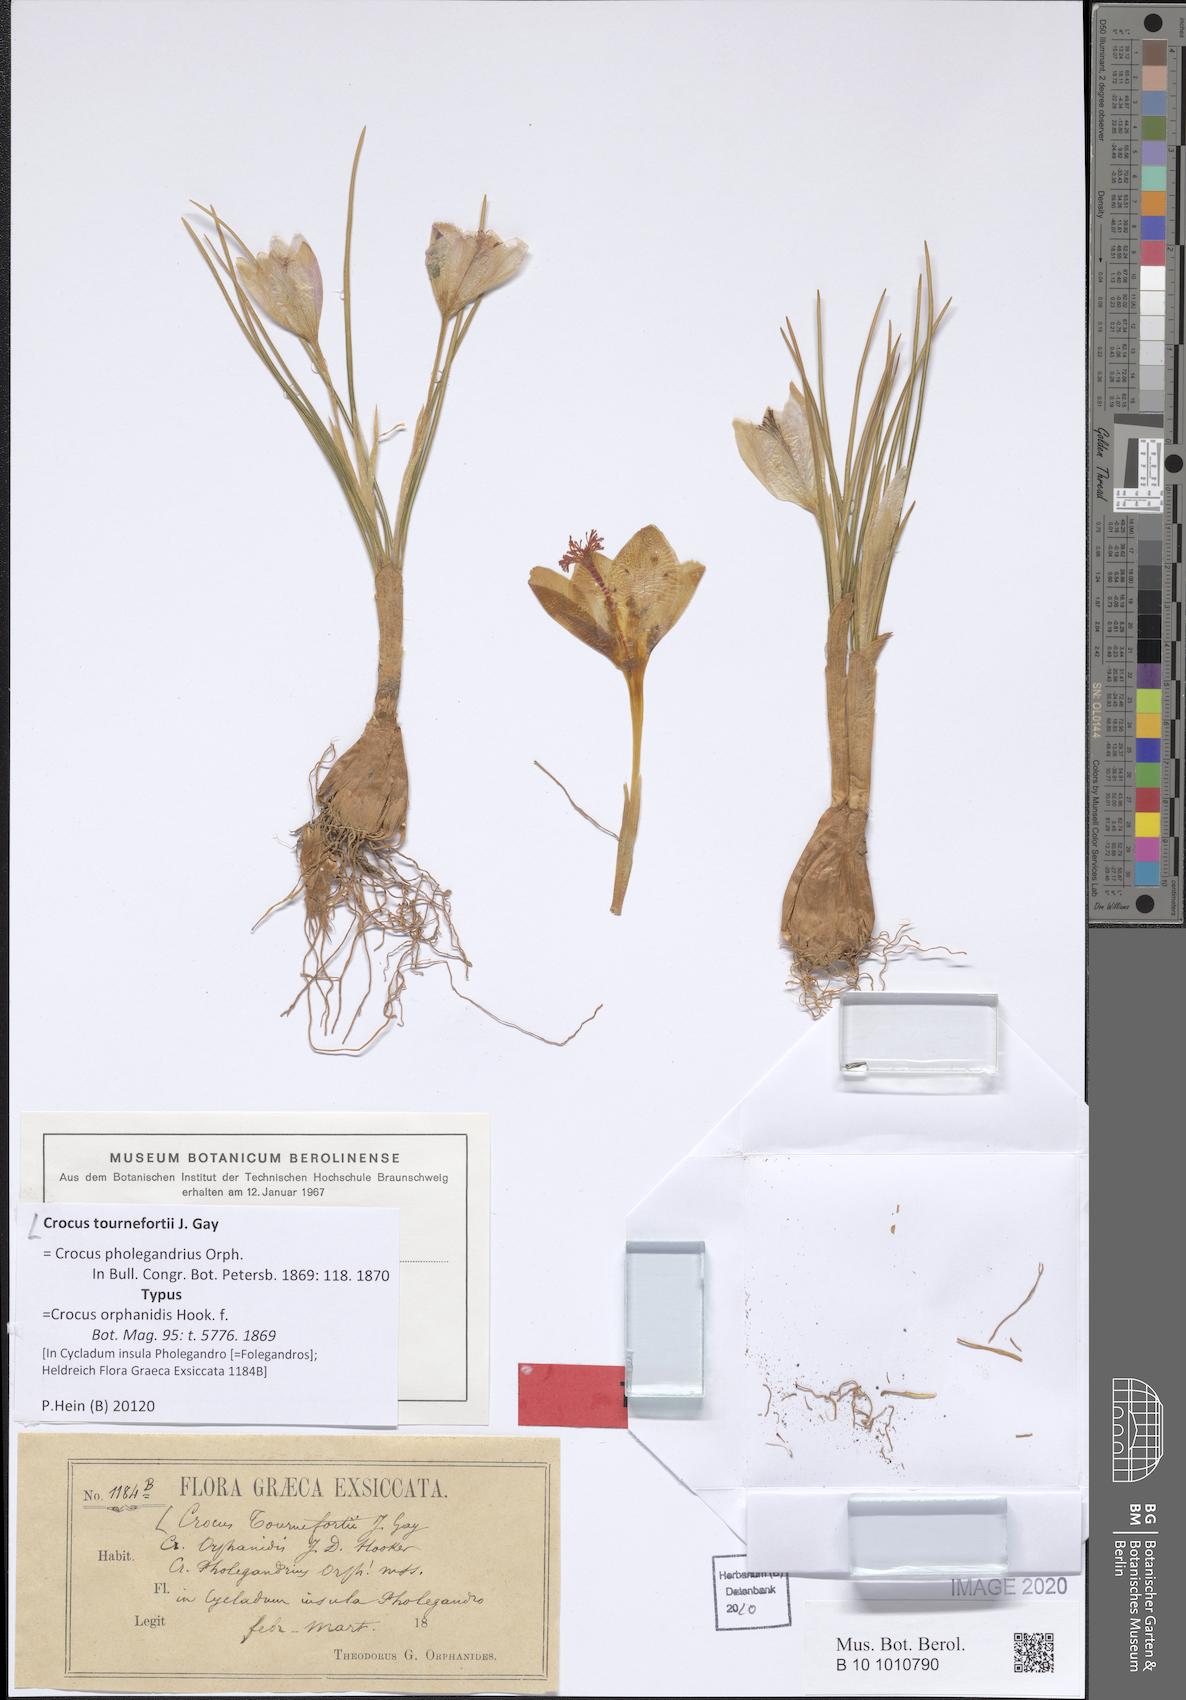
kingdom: Plantae
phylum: Tracheophyta
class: Liliopsida
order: Asparagales
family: Iridaceae
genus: Crocus
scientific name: Crocus tournefortii
